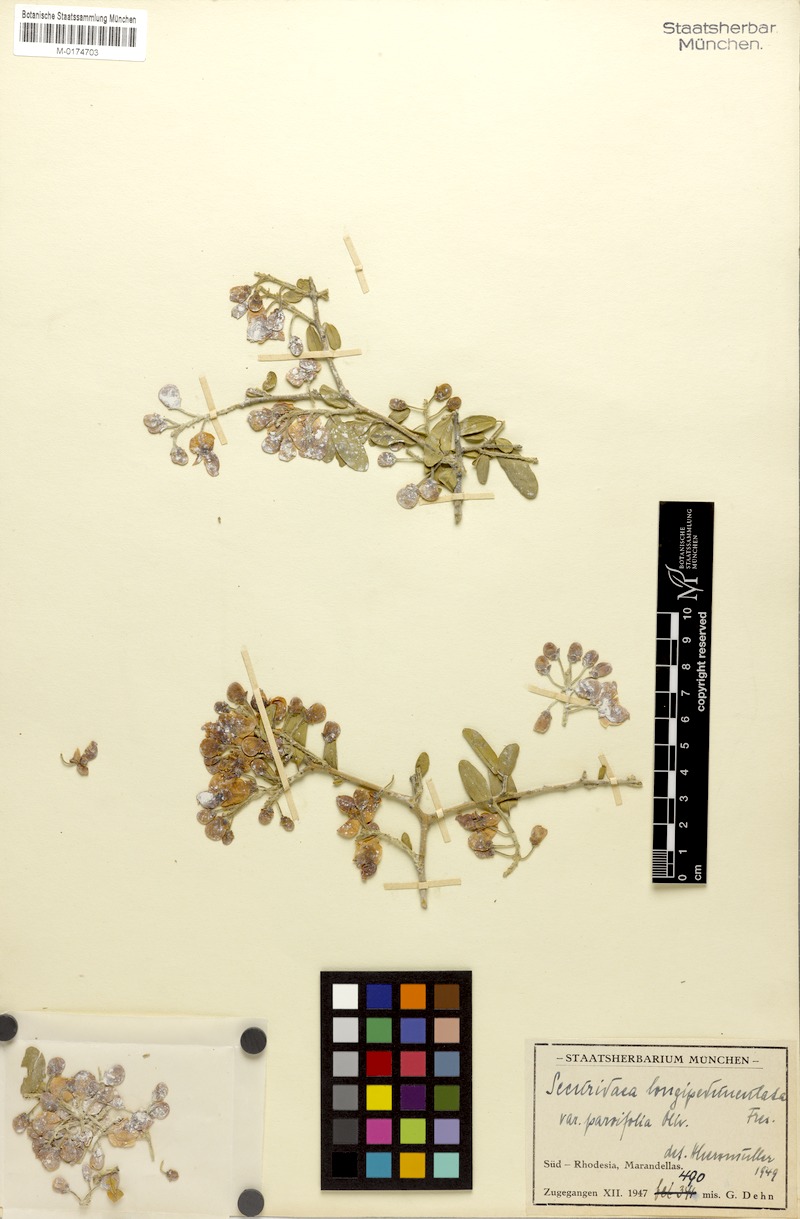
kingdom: Plantae
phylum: Tracheophyta
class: Magnoliopsida
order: Fabales
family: Polygalaceae
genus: Securidaca
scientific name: Securidaca longipedunculata
